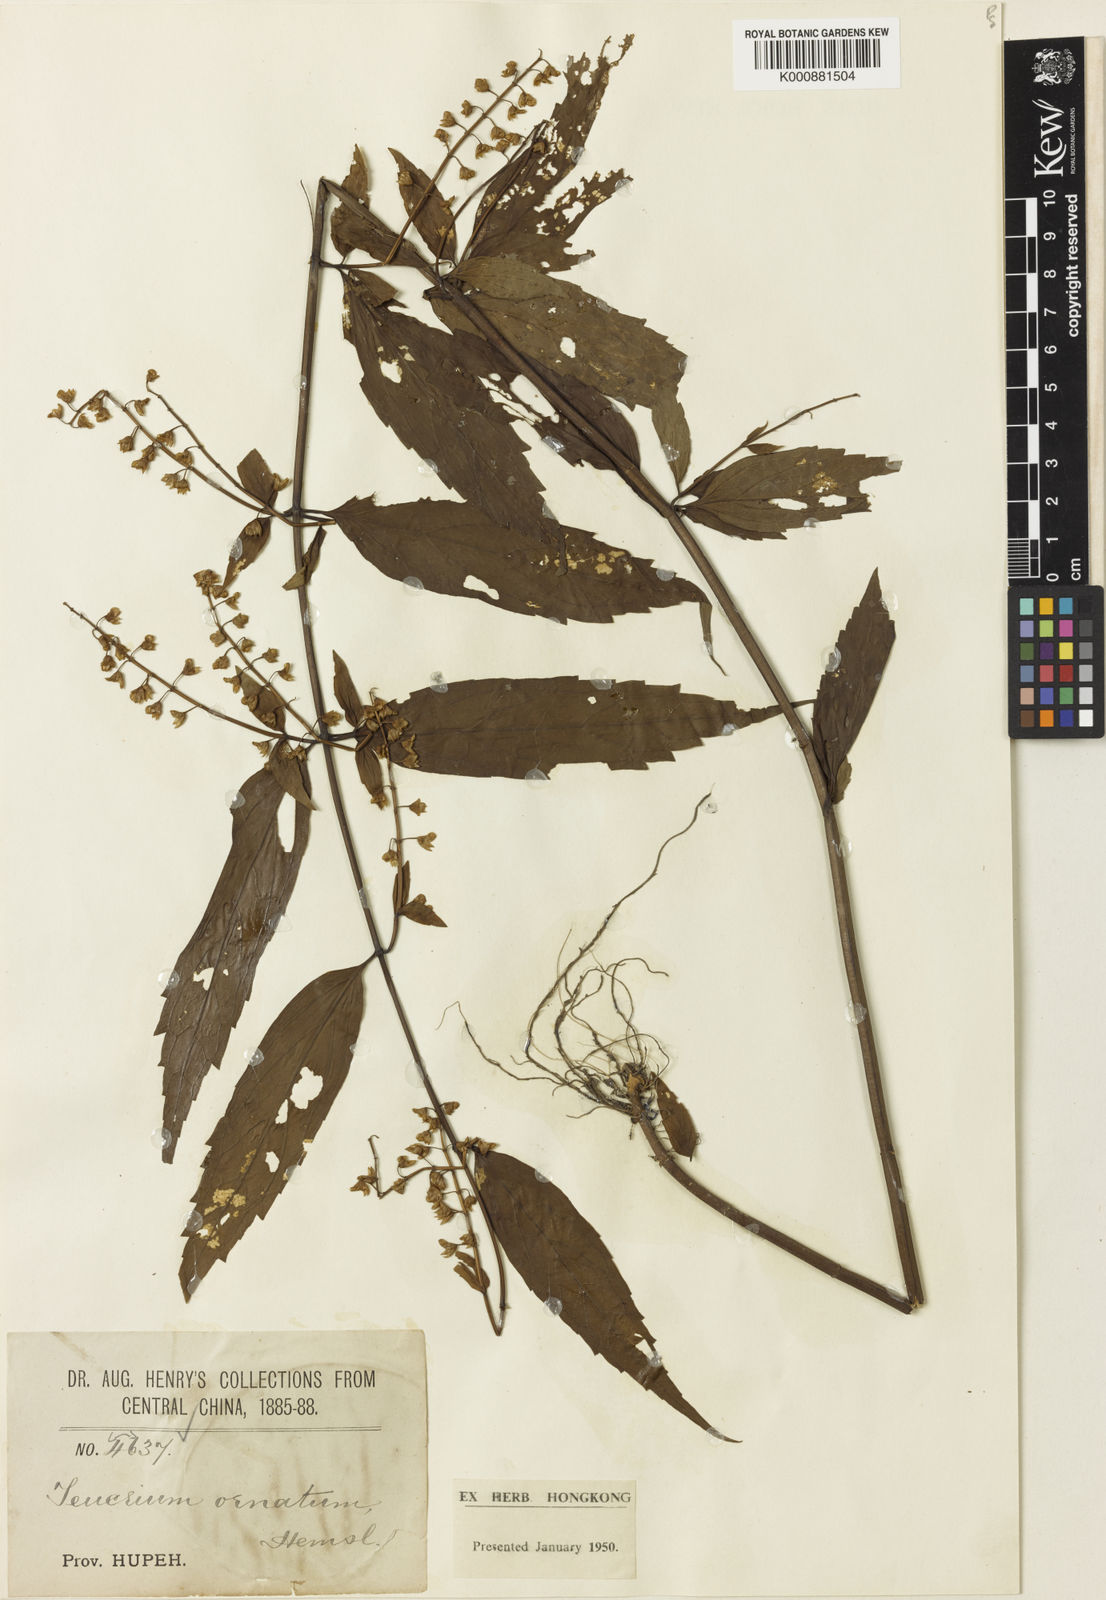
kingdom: Plantae
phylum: Tracheophyta
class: Magnoliopsida
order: Lamiales
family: Lamiaceae
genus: Teucrium
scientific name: Teucrium ornatum
